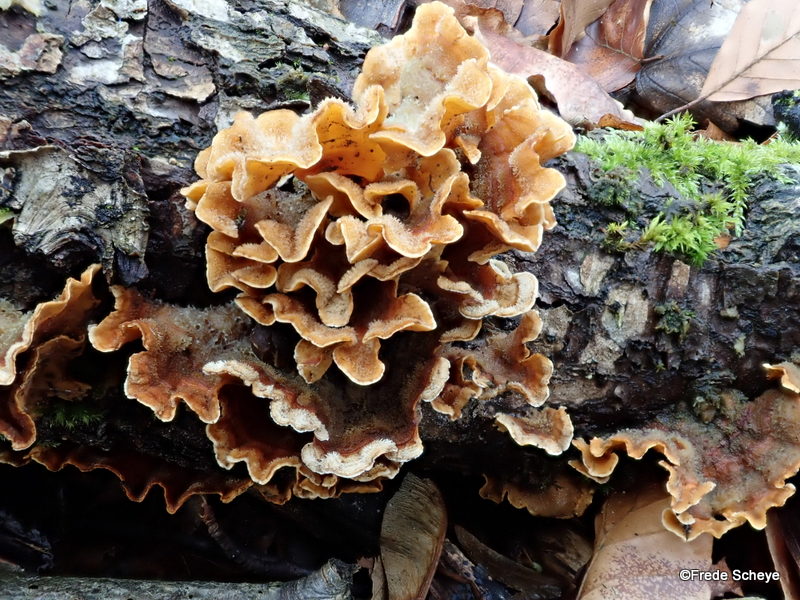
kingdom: Fungi
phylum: Basidiomycota
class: Agaricomycetes
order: Russulales
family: Stereaceae
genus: Stereum
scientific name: Stereum hirsutum
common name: håret lædersvamp
